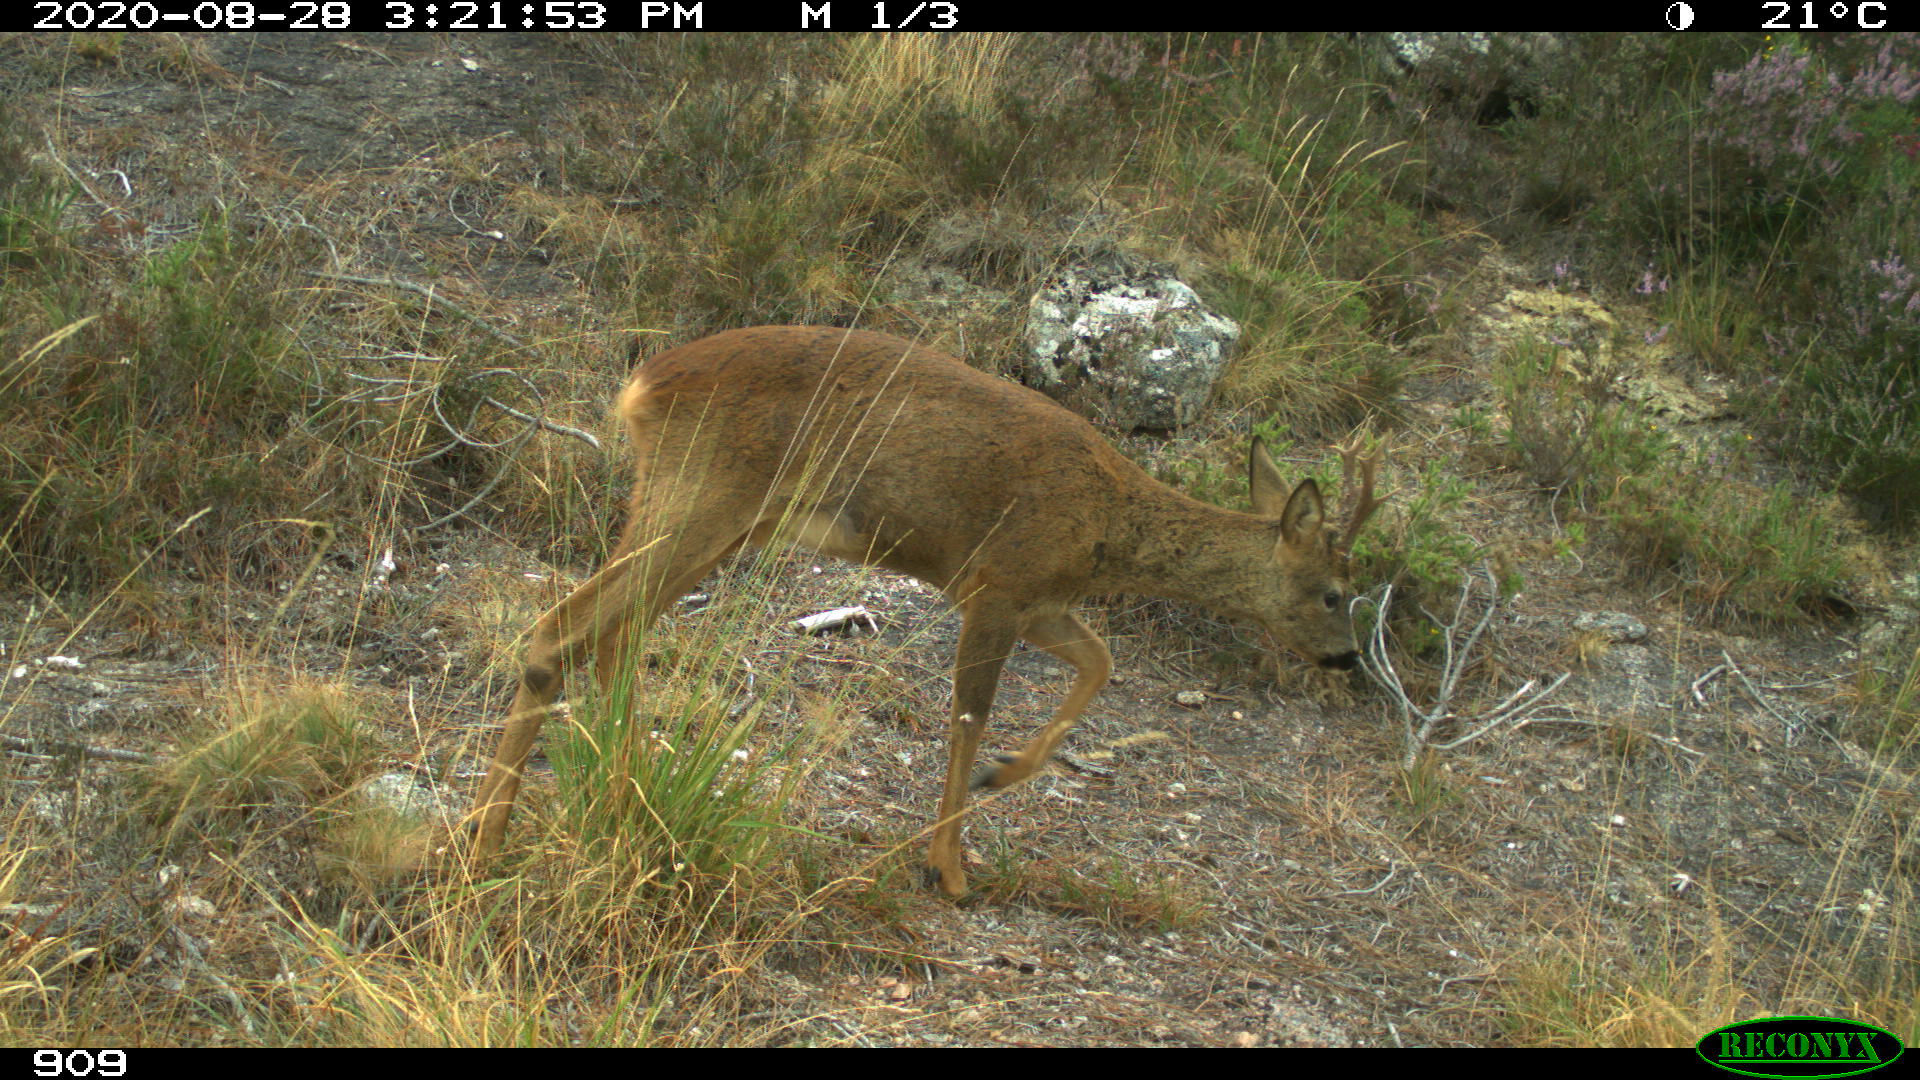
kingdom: Animalia
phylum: Chordata
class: Mammalia
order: Artiodactyla
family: Cervidae
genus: Capreolus
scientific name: Capreolus capreolus
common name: Western roe deer
